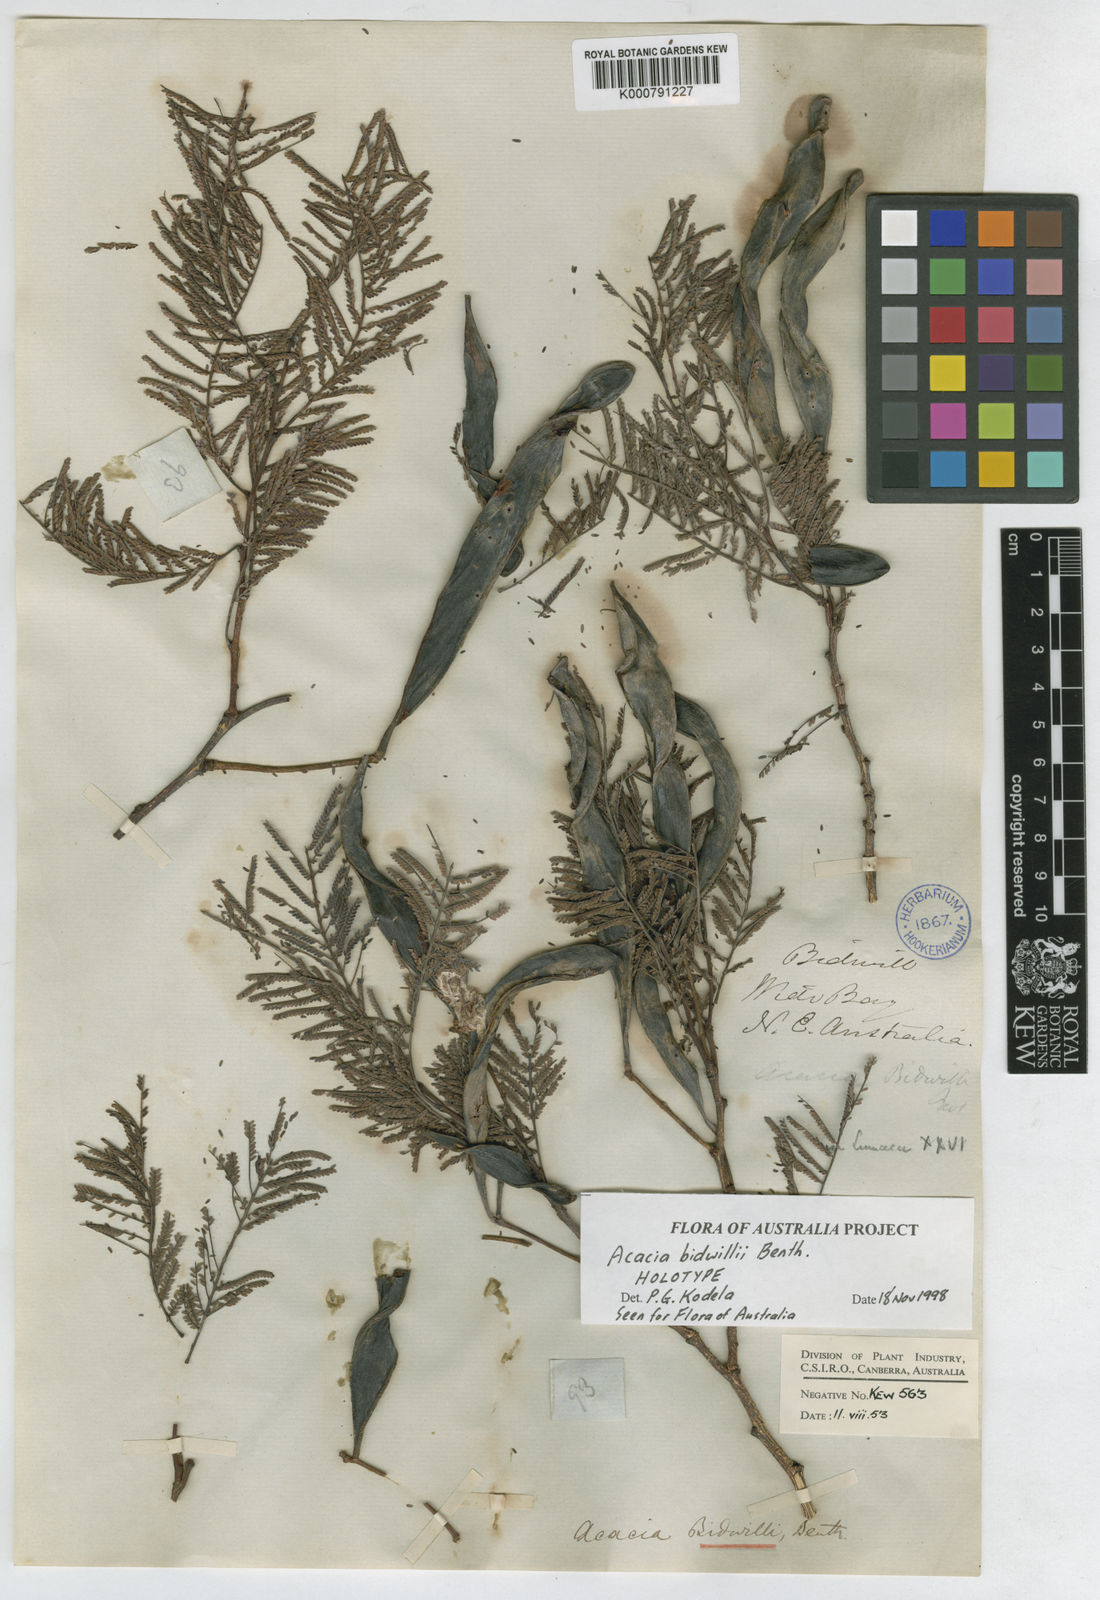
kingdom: Plantae
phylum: Tracheophyta
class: Magnoliopsida
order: Fabales
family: Fabaceae
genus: Vachellia
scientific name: Vachellia bidwillii
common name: Corkwood wattle
